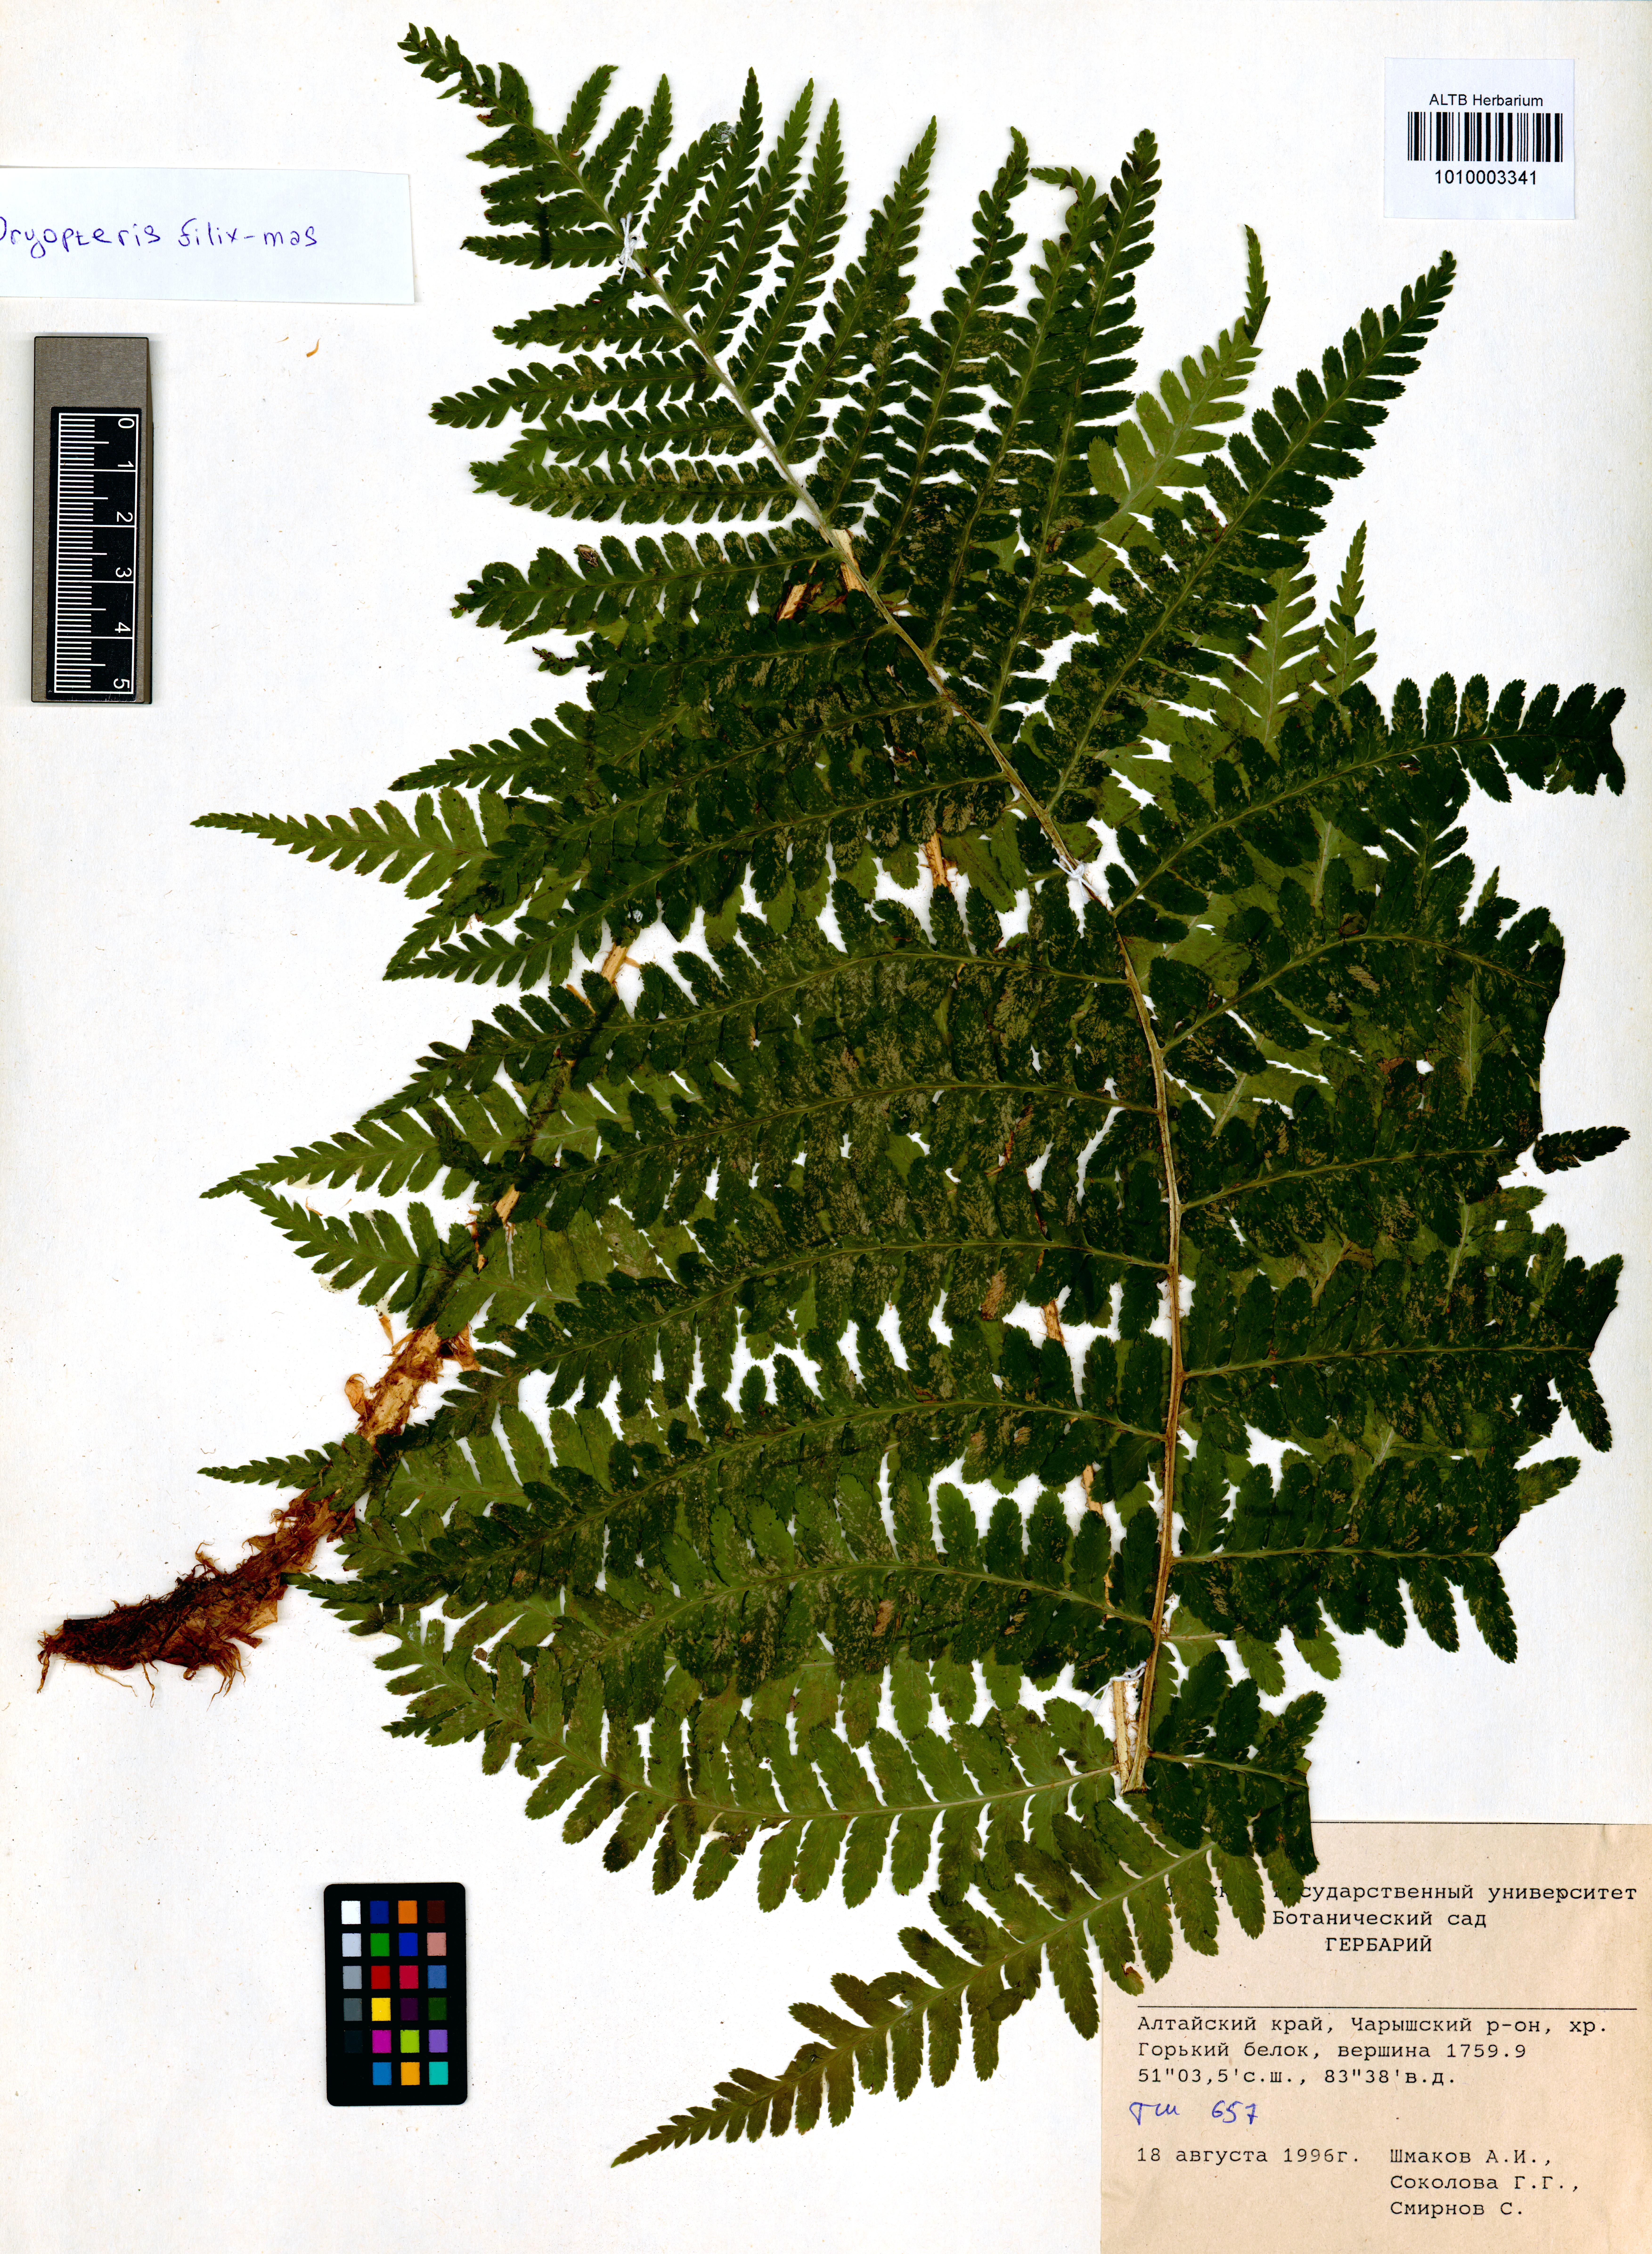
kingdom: Plantae
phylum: Tracheophyta
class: Polypodiopsida
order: Polypodiales
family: Dryopteridaceae
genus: Dryopteris
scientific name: Dryopteris filix-mas
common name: Male fern
